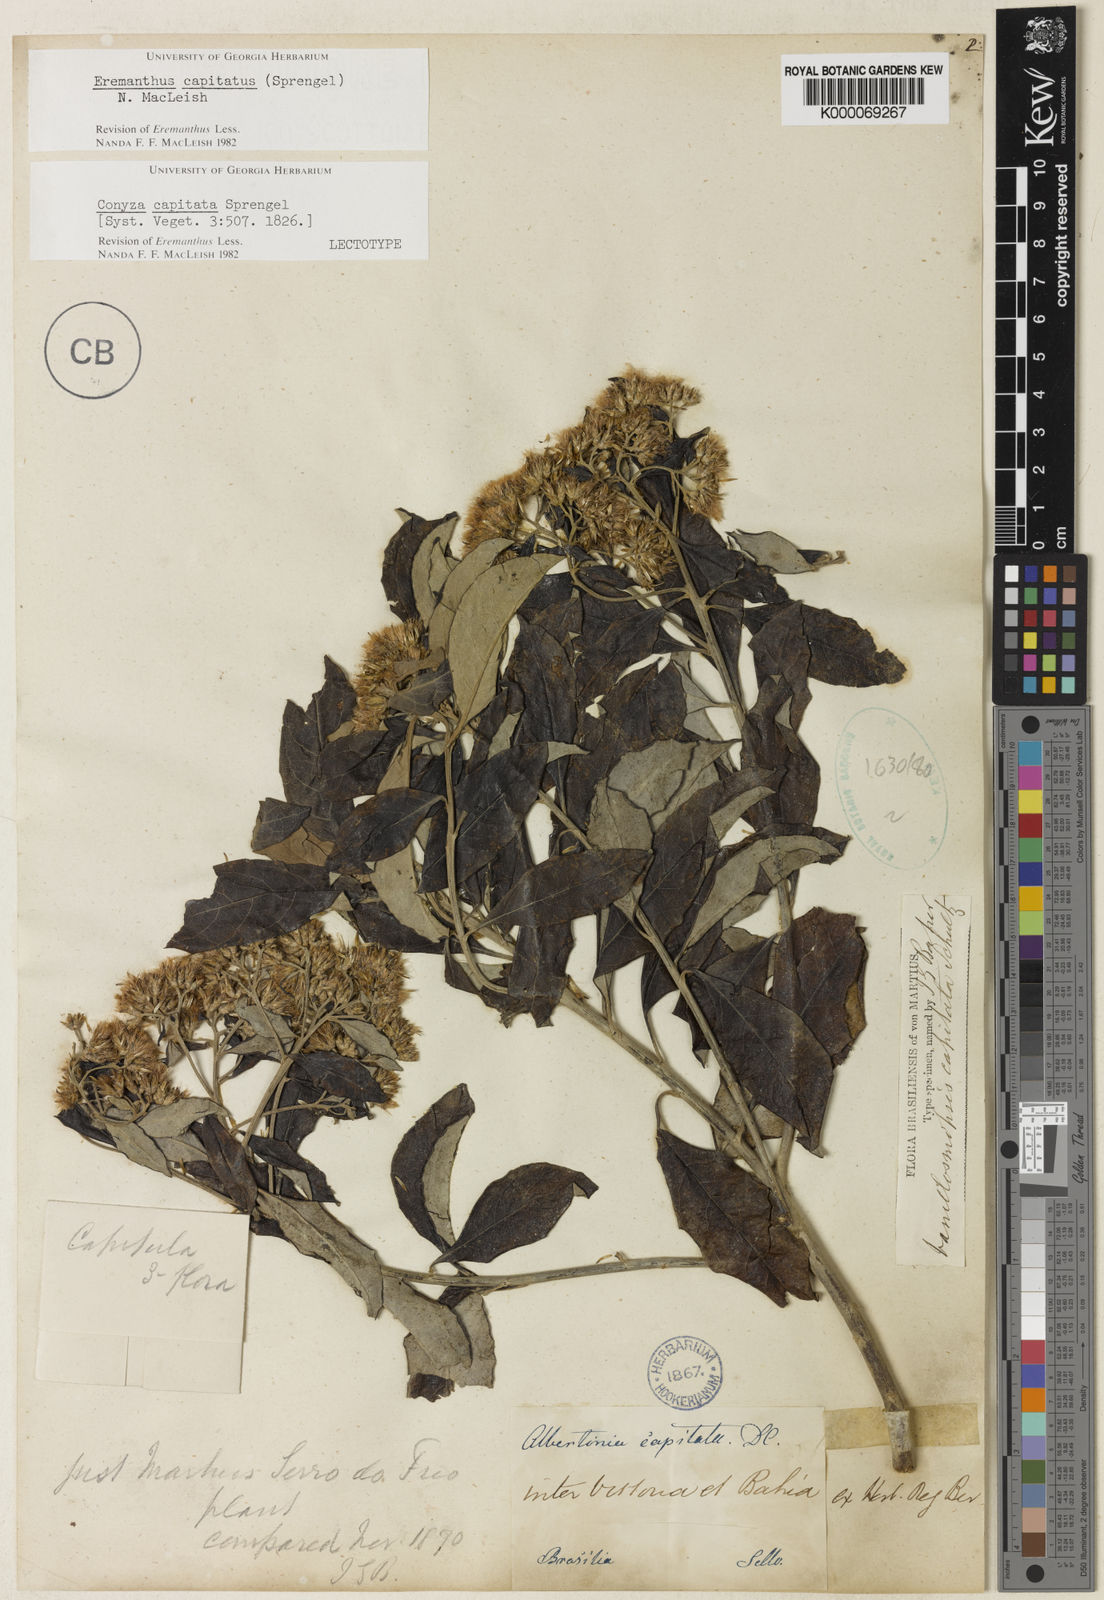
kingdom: Plantae
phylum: Tracheophyta
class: Magnoliopsida
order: Asterales
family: Asteraceae
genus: Eremanthus
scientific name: Eremanthus capitatus
